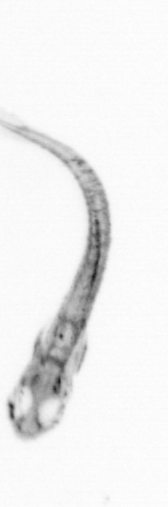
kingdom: Animalia
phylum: Chordata
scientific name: Chordata
